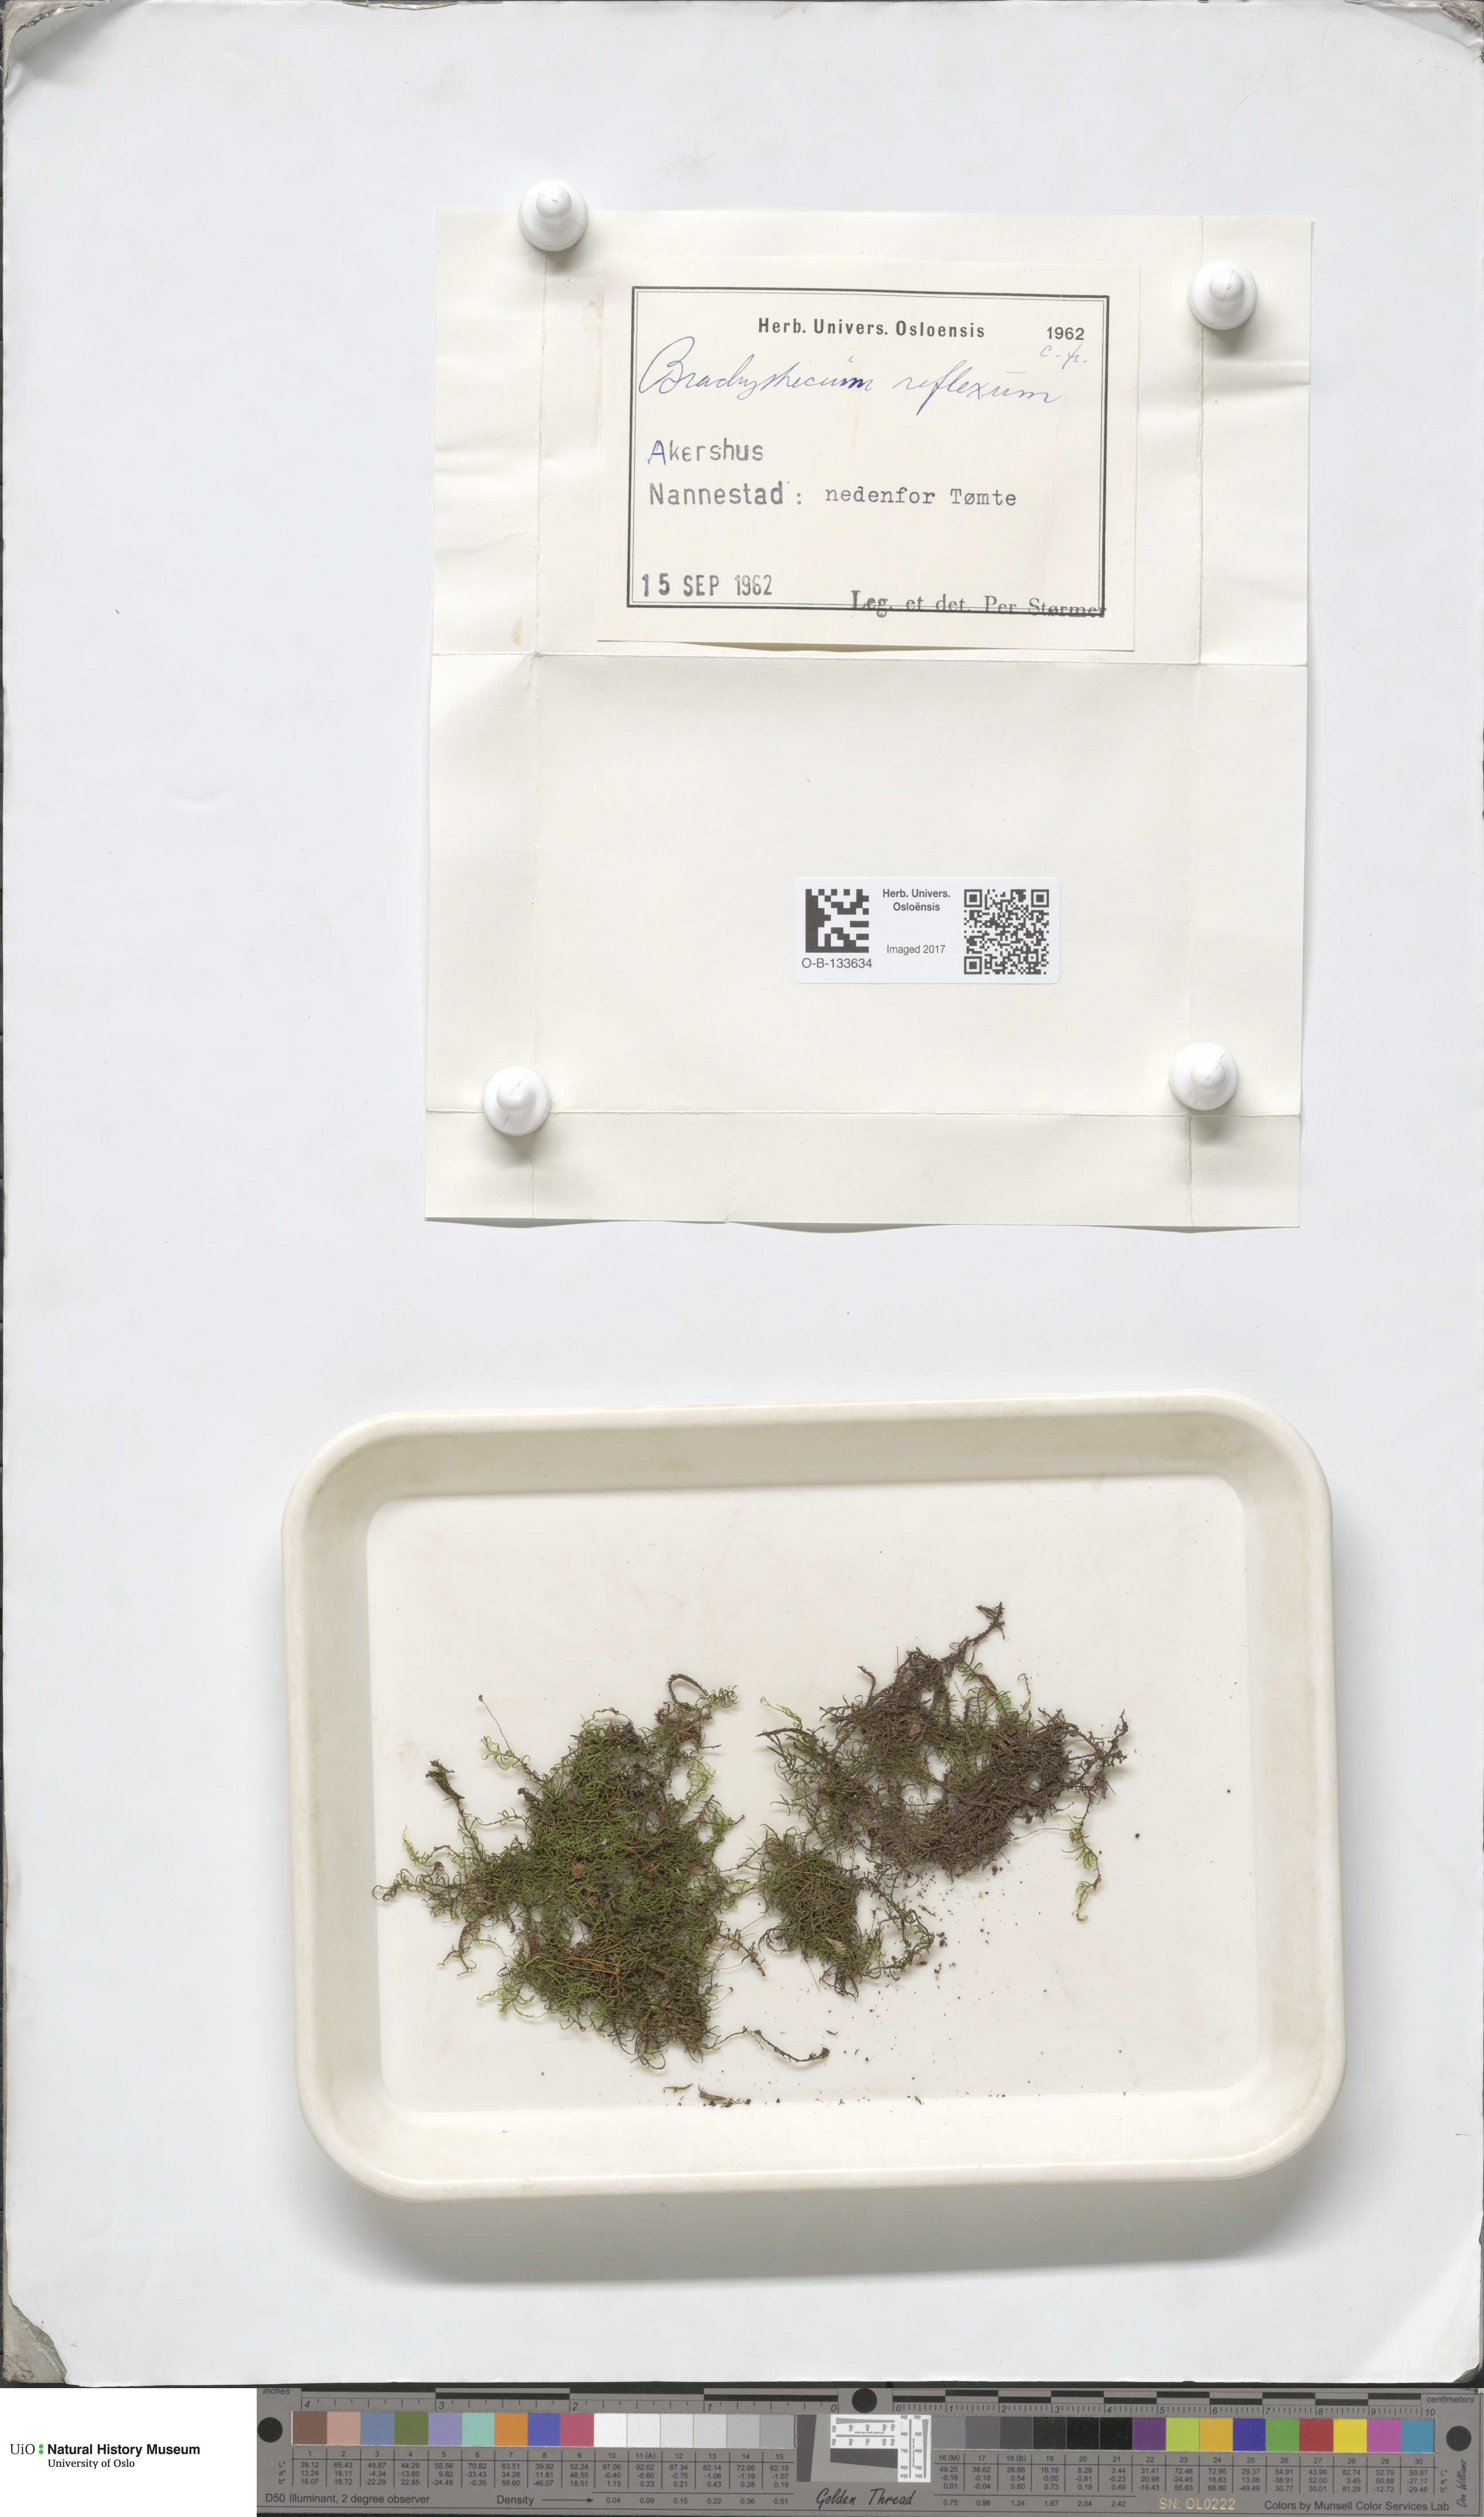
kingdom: Plantae
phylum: Bryophyta
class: Bryopsida
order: Hypnales
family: Brachytheciaceae
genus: Sciuro-hypnum
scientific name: Sciuro-hypnum reflexum
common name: Reflexed feather-moss
